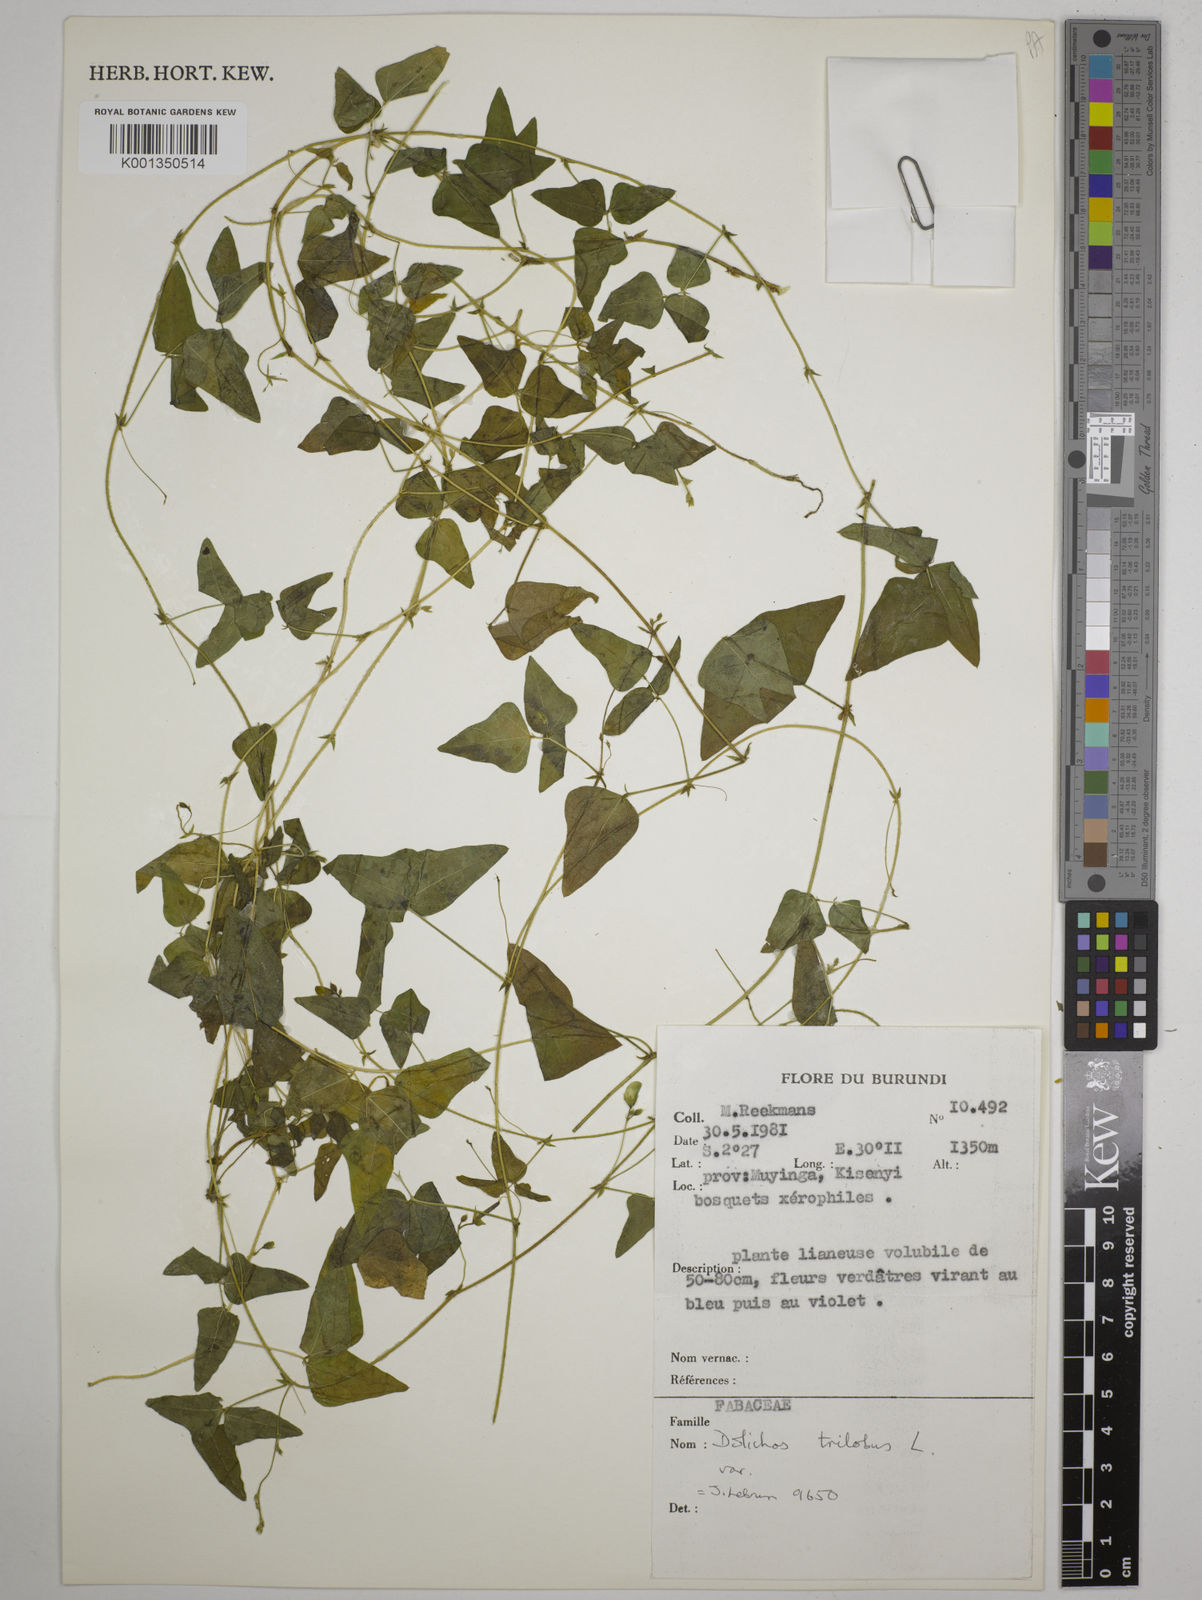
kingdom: Plantae
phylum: Tracheophyta
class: Magnoliopsida
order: Fabales
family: Fabaceae
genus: Dolichos
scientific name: Dolichos
